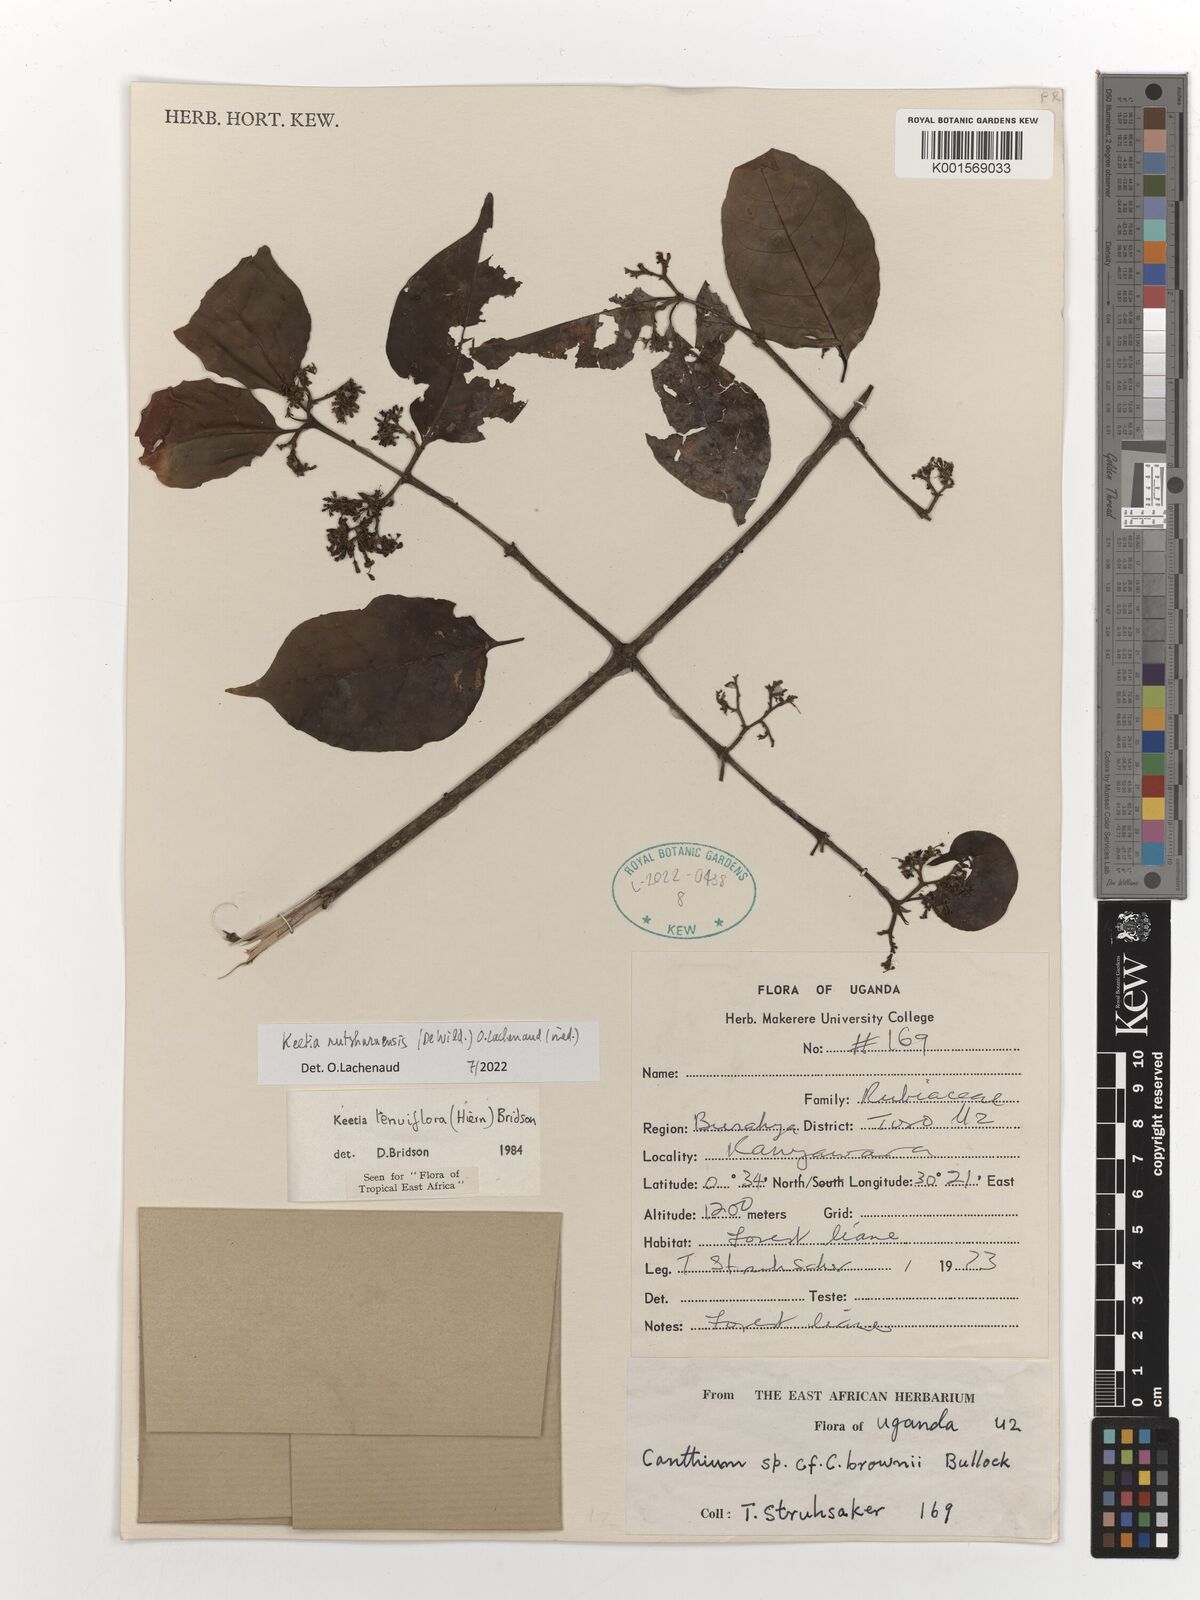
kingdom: Plantae
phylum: Tracheophyta
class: Magnoliopsida
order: Gentianales
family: Rubiaceae
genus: Keetia
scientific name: Keetia
